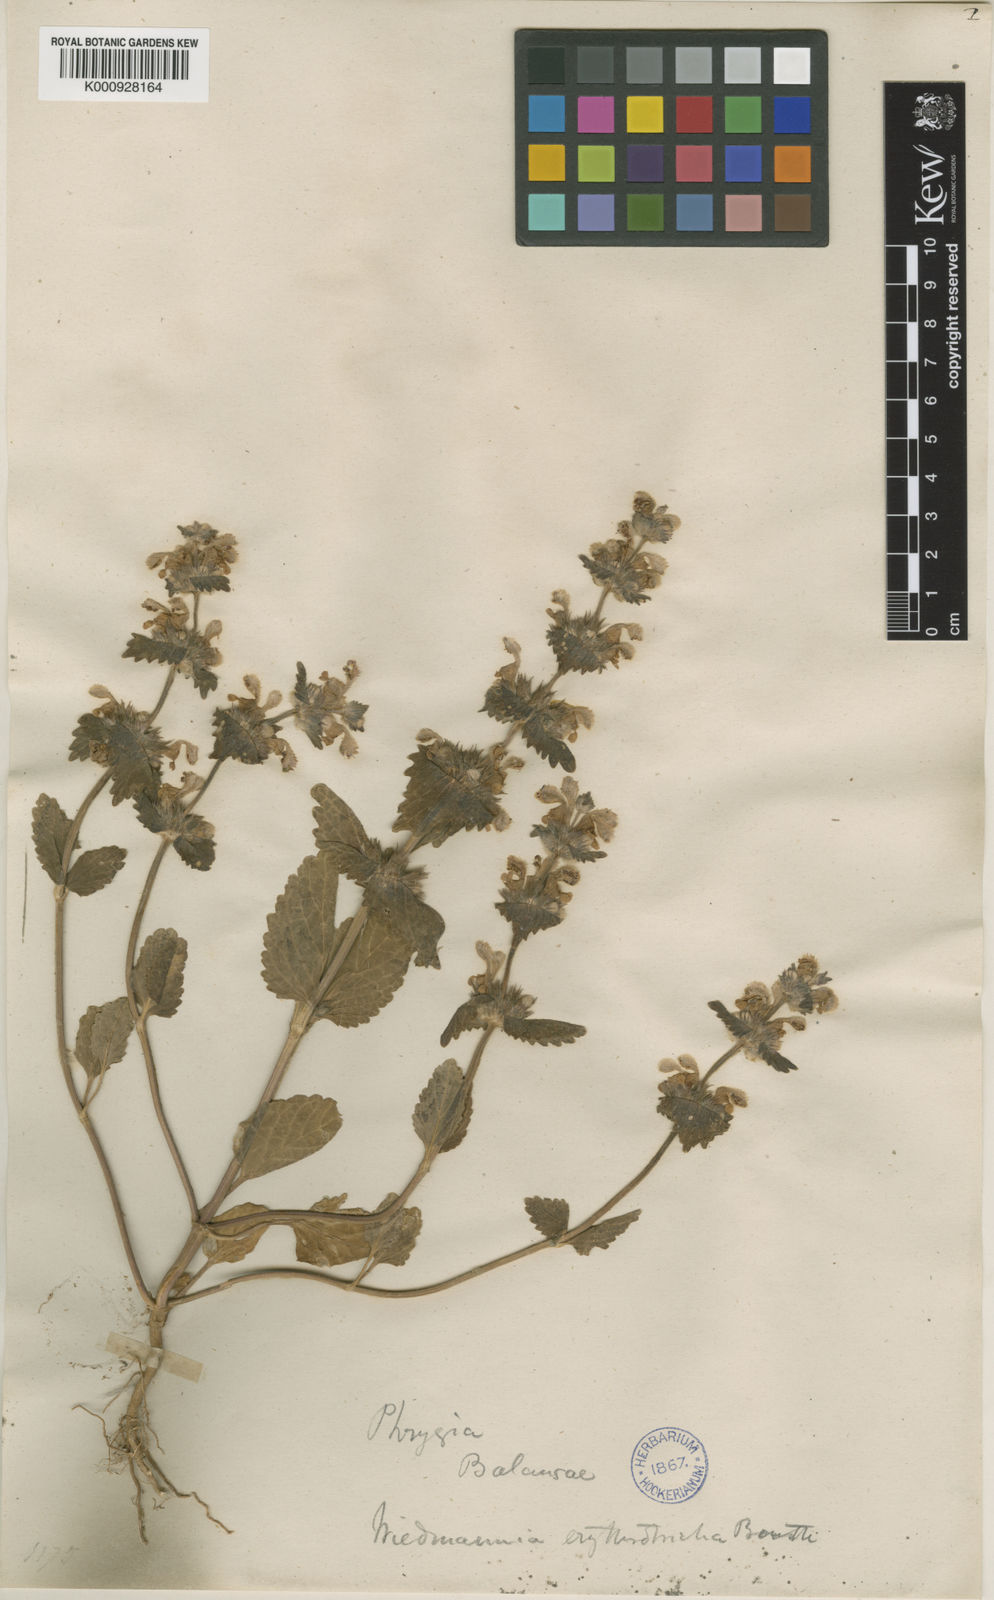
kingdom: Plantae
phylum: Tracheophyta
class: Magnoliopsida
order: Lamiales
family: Lamiaceae
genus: Lamium
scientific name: Lamium orientale
